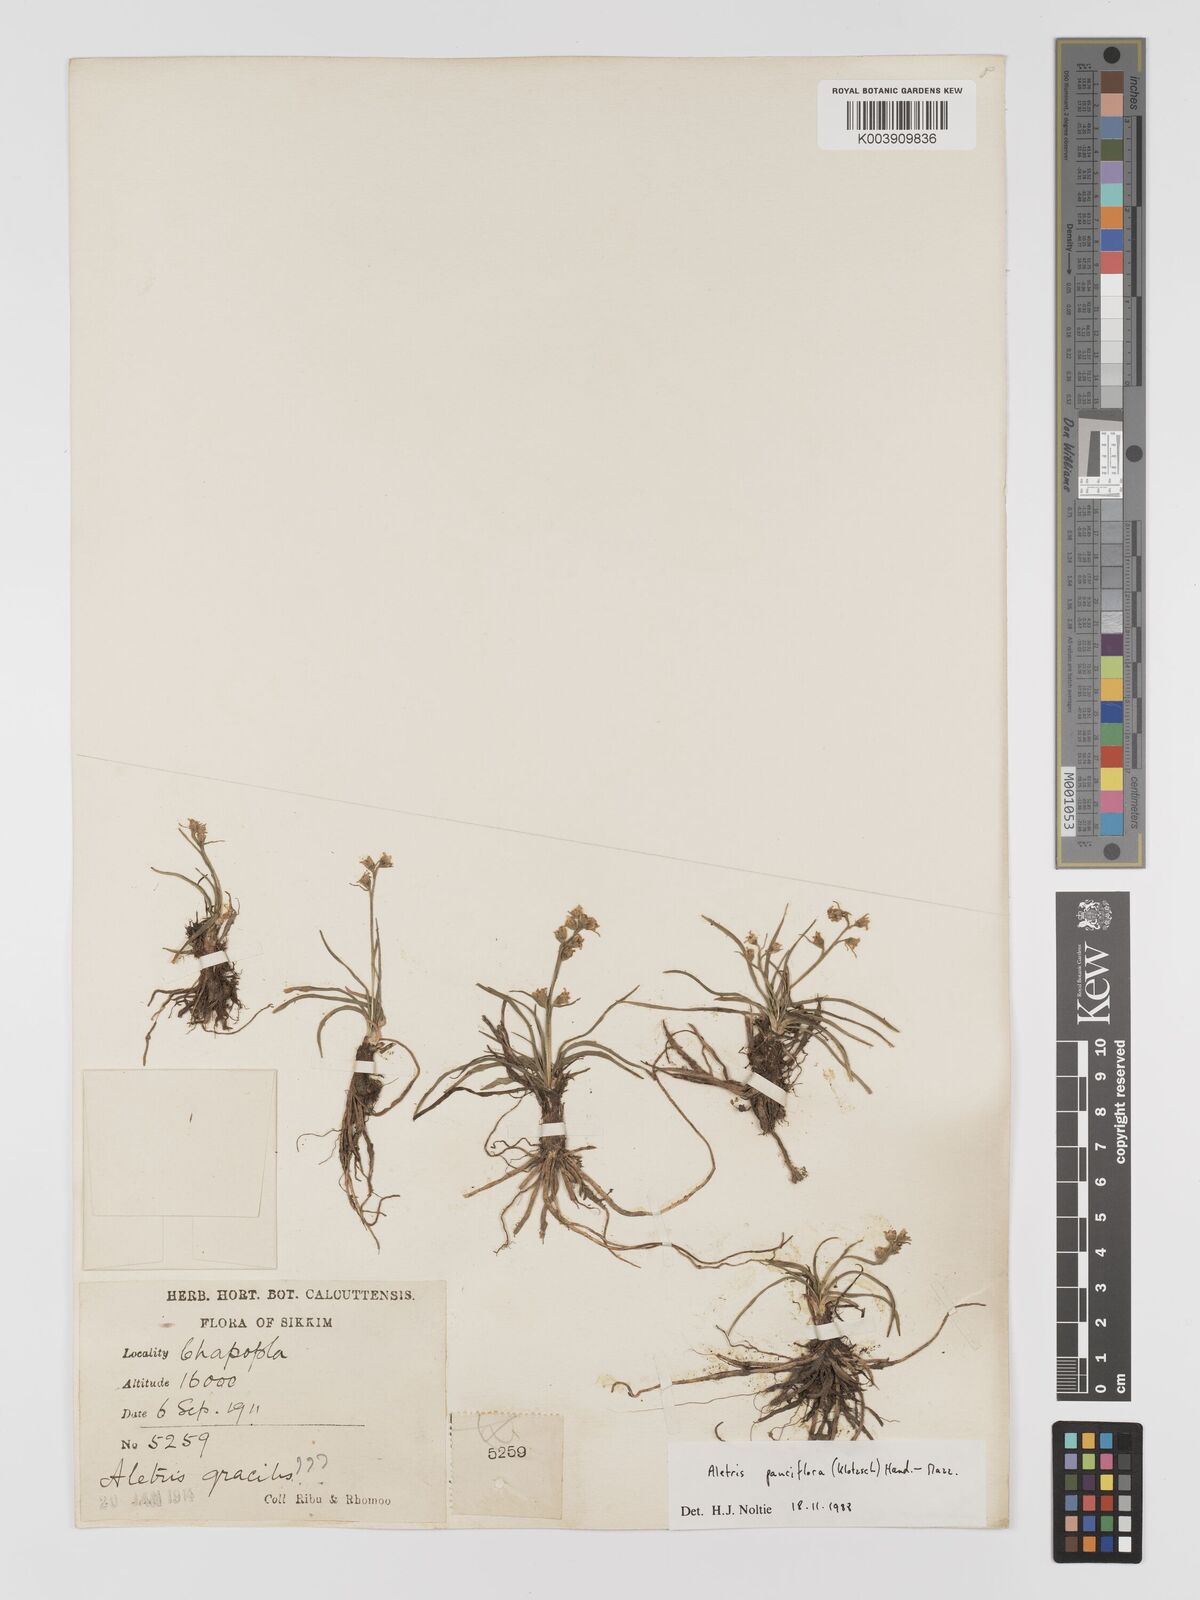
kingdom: Plantae
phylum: Tracheophyta
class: Liliopsida
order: Dioscoreales
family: Nartheciaceae
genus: Aletris
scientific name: Aletris pauciflora
